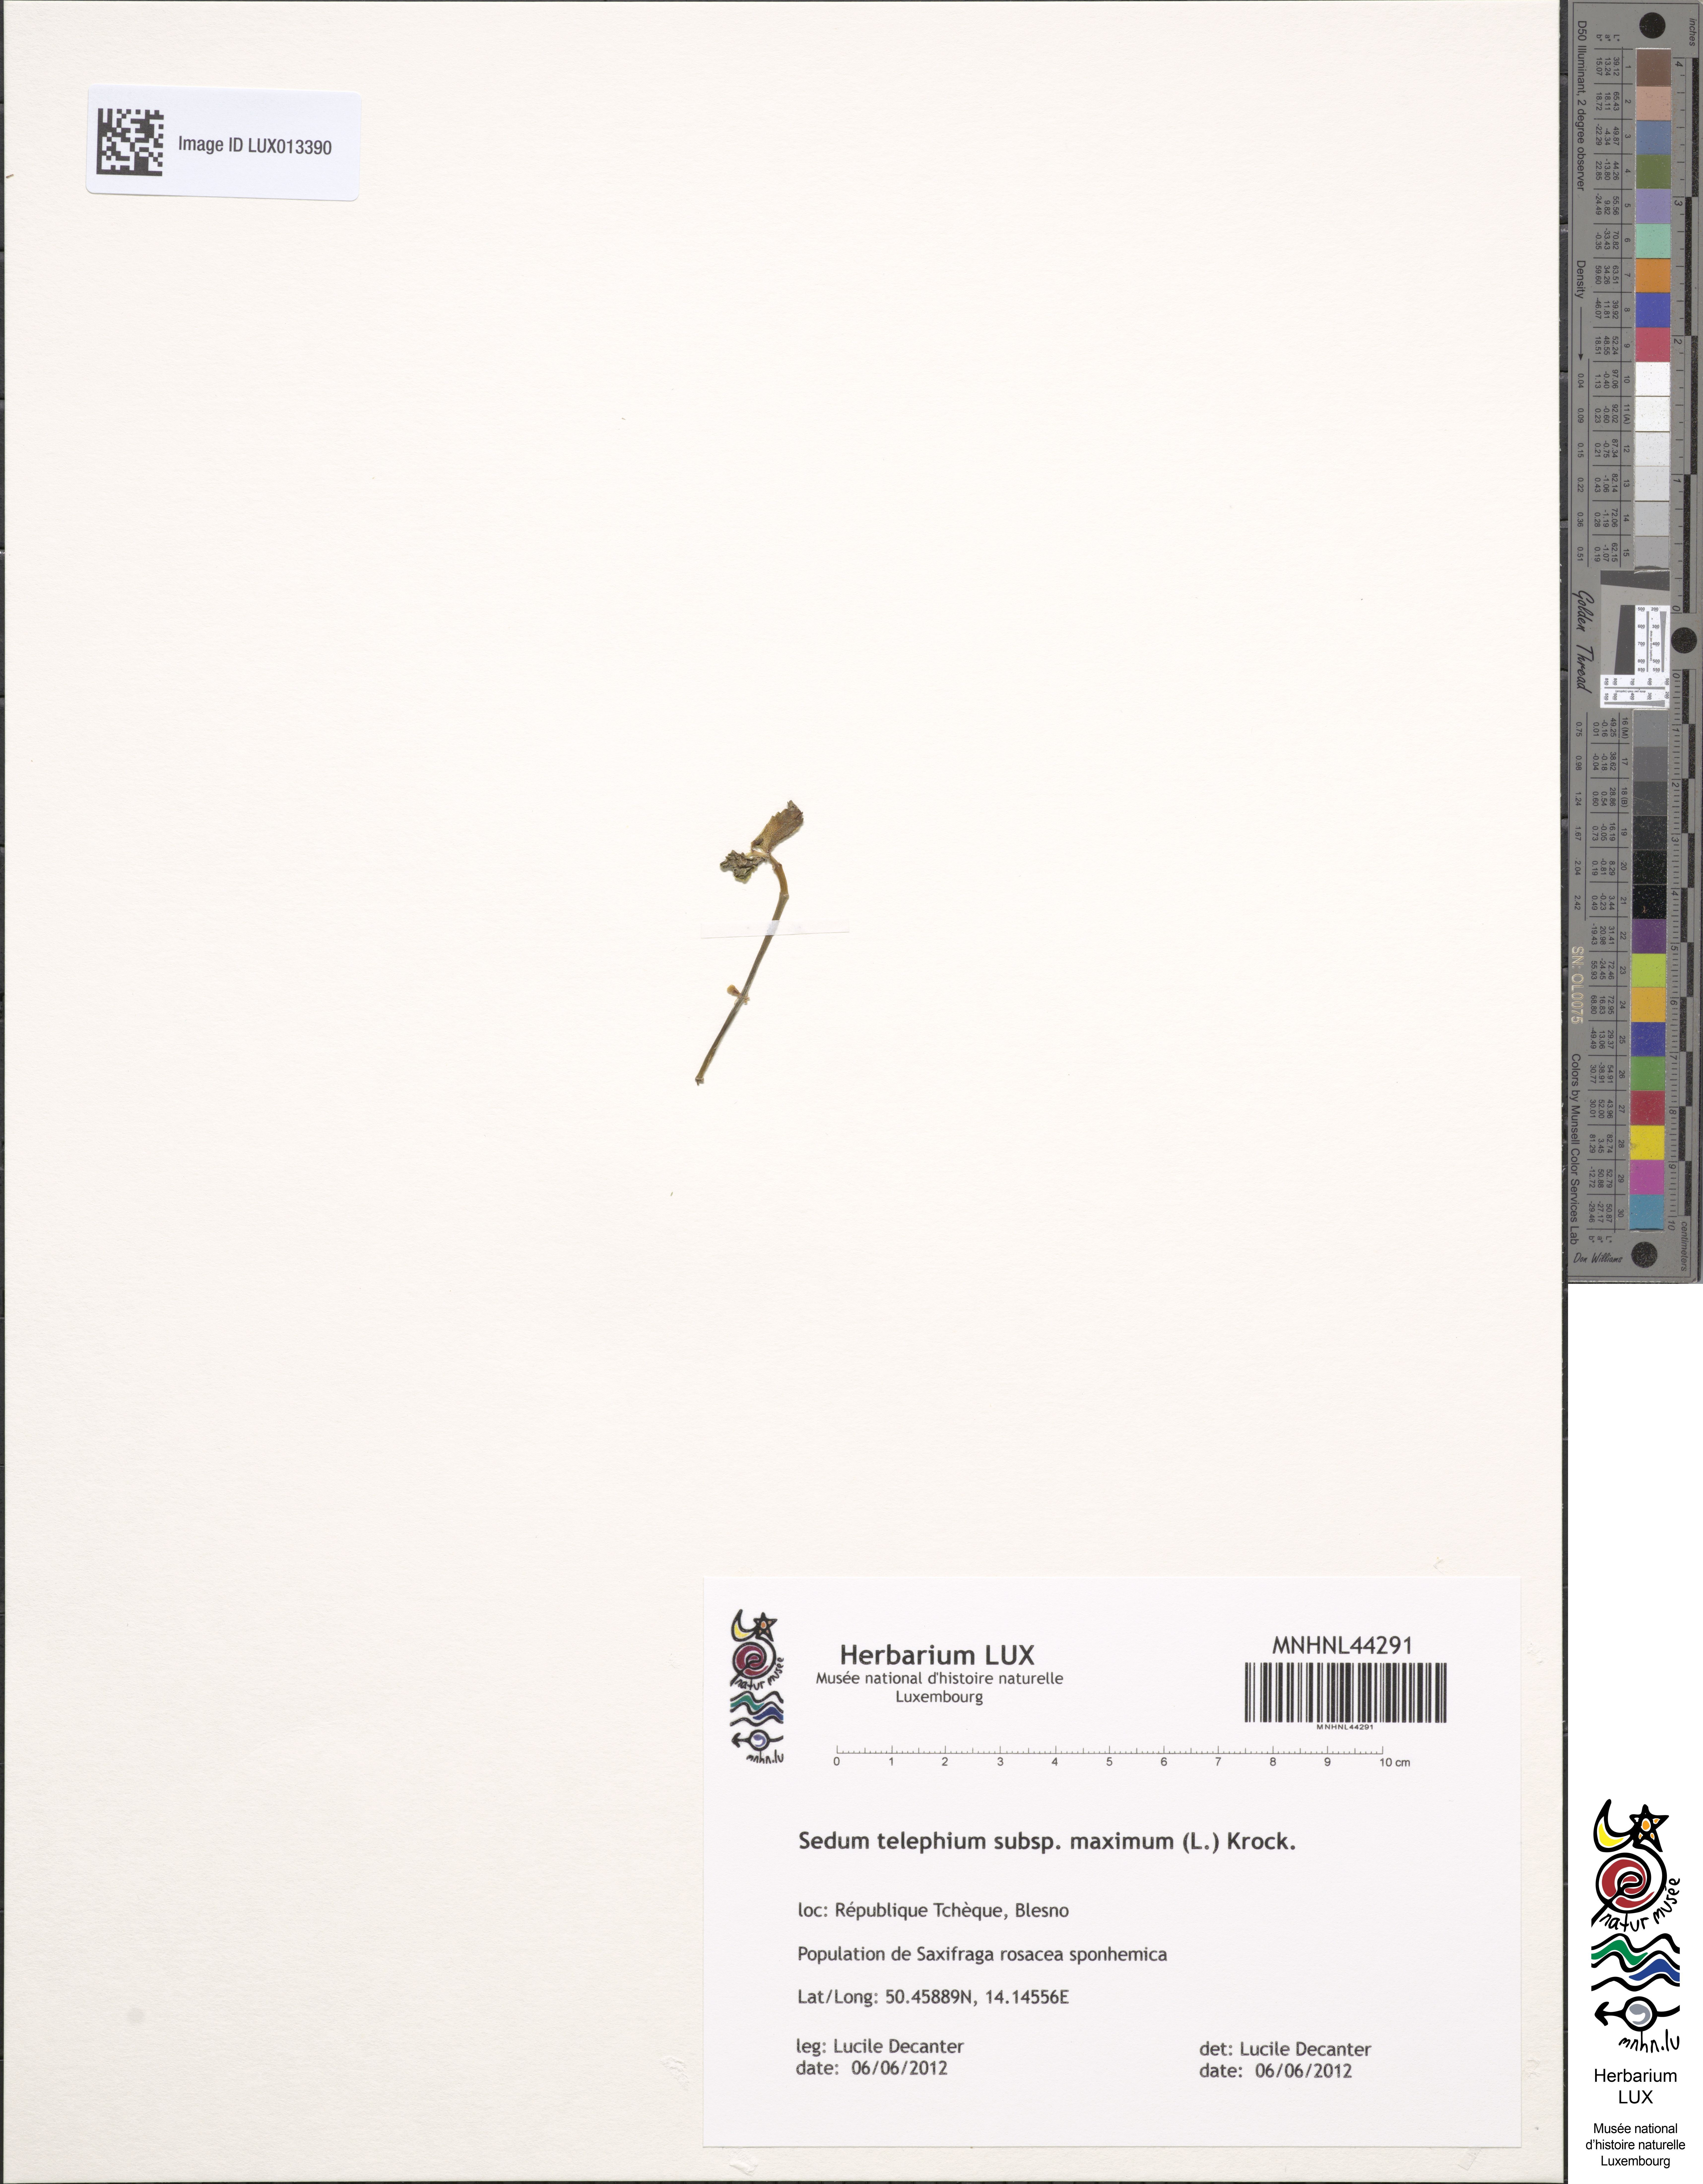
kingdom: Plantae
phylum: Tracheophyta
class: Magnoliopsida
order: Saxifragales
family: Crassulaceae
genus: Hylotelephium
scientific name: Hylotelephium maximum
